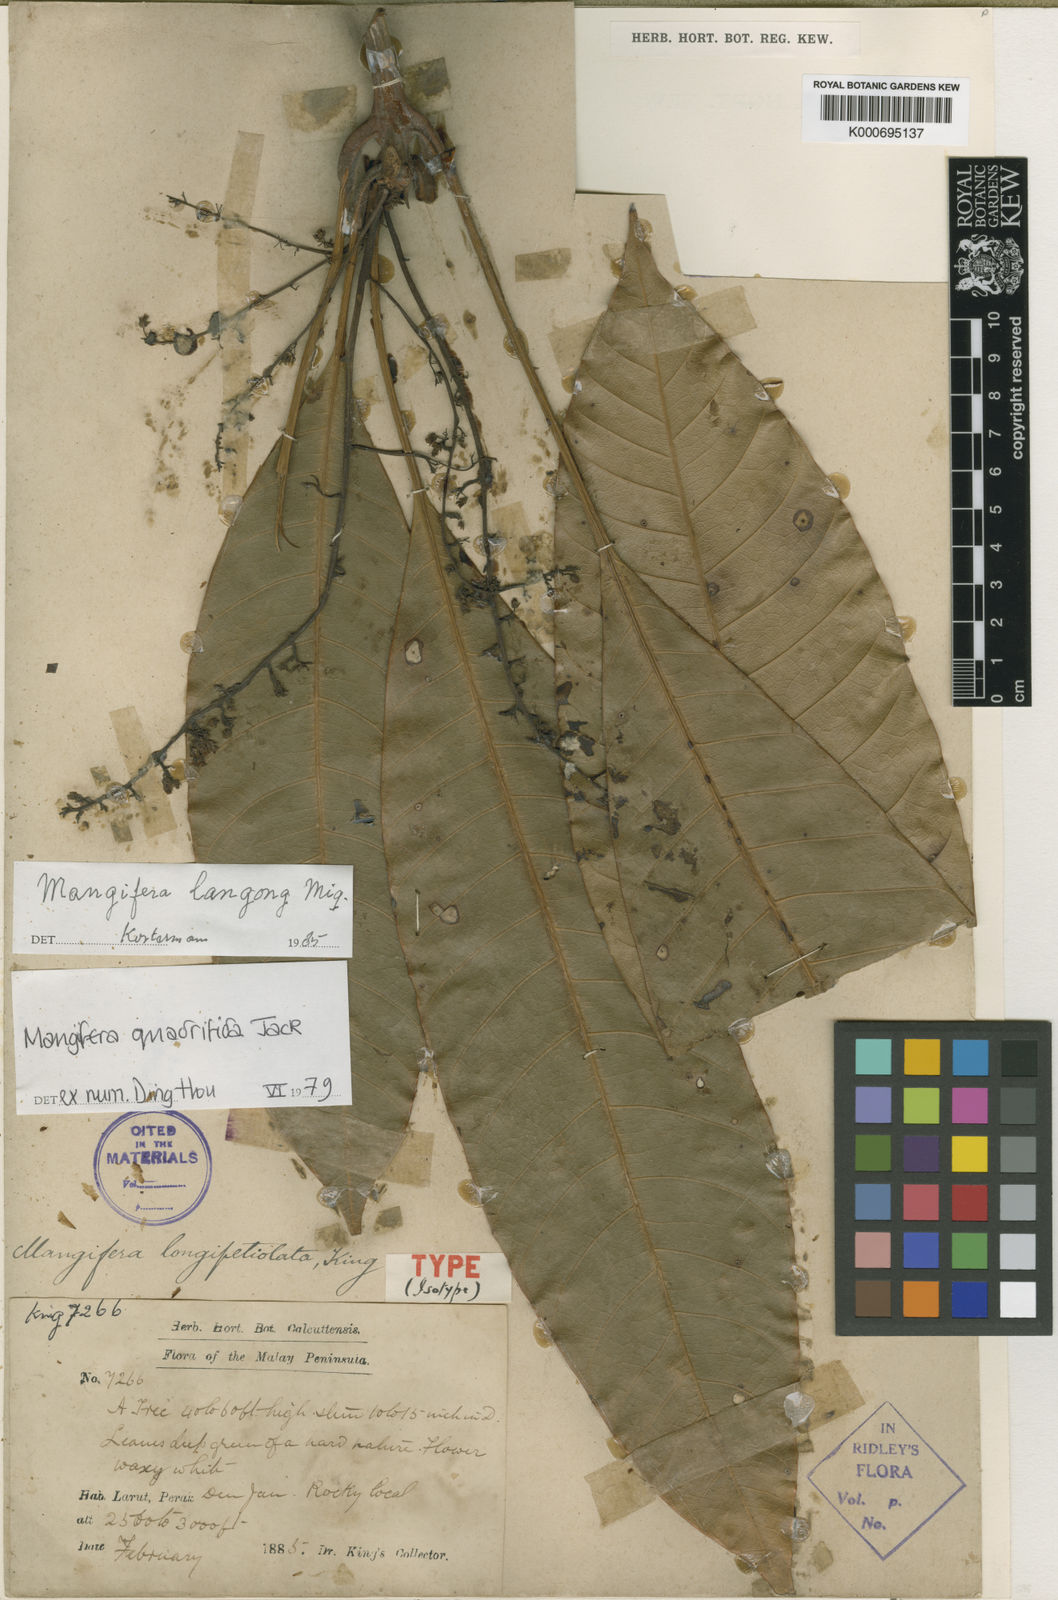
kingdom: Plantae
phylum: Tracheophyta
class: Magnoliopsida
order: Sapindales
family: Anacardiaceae
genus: Mangifera
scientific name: Mangifera quadrifida
